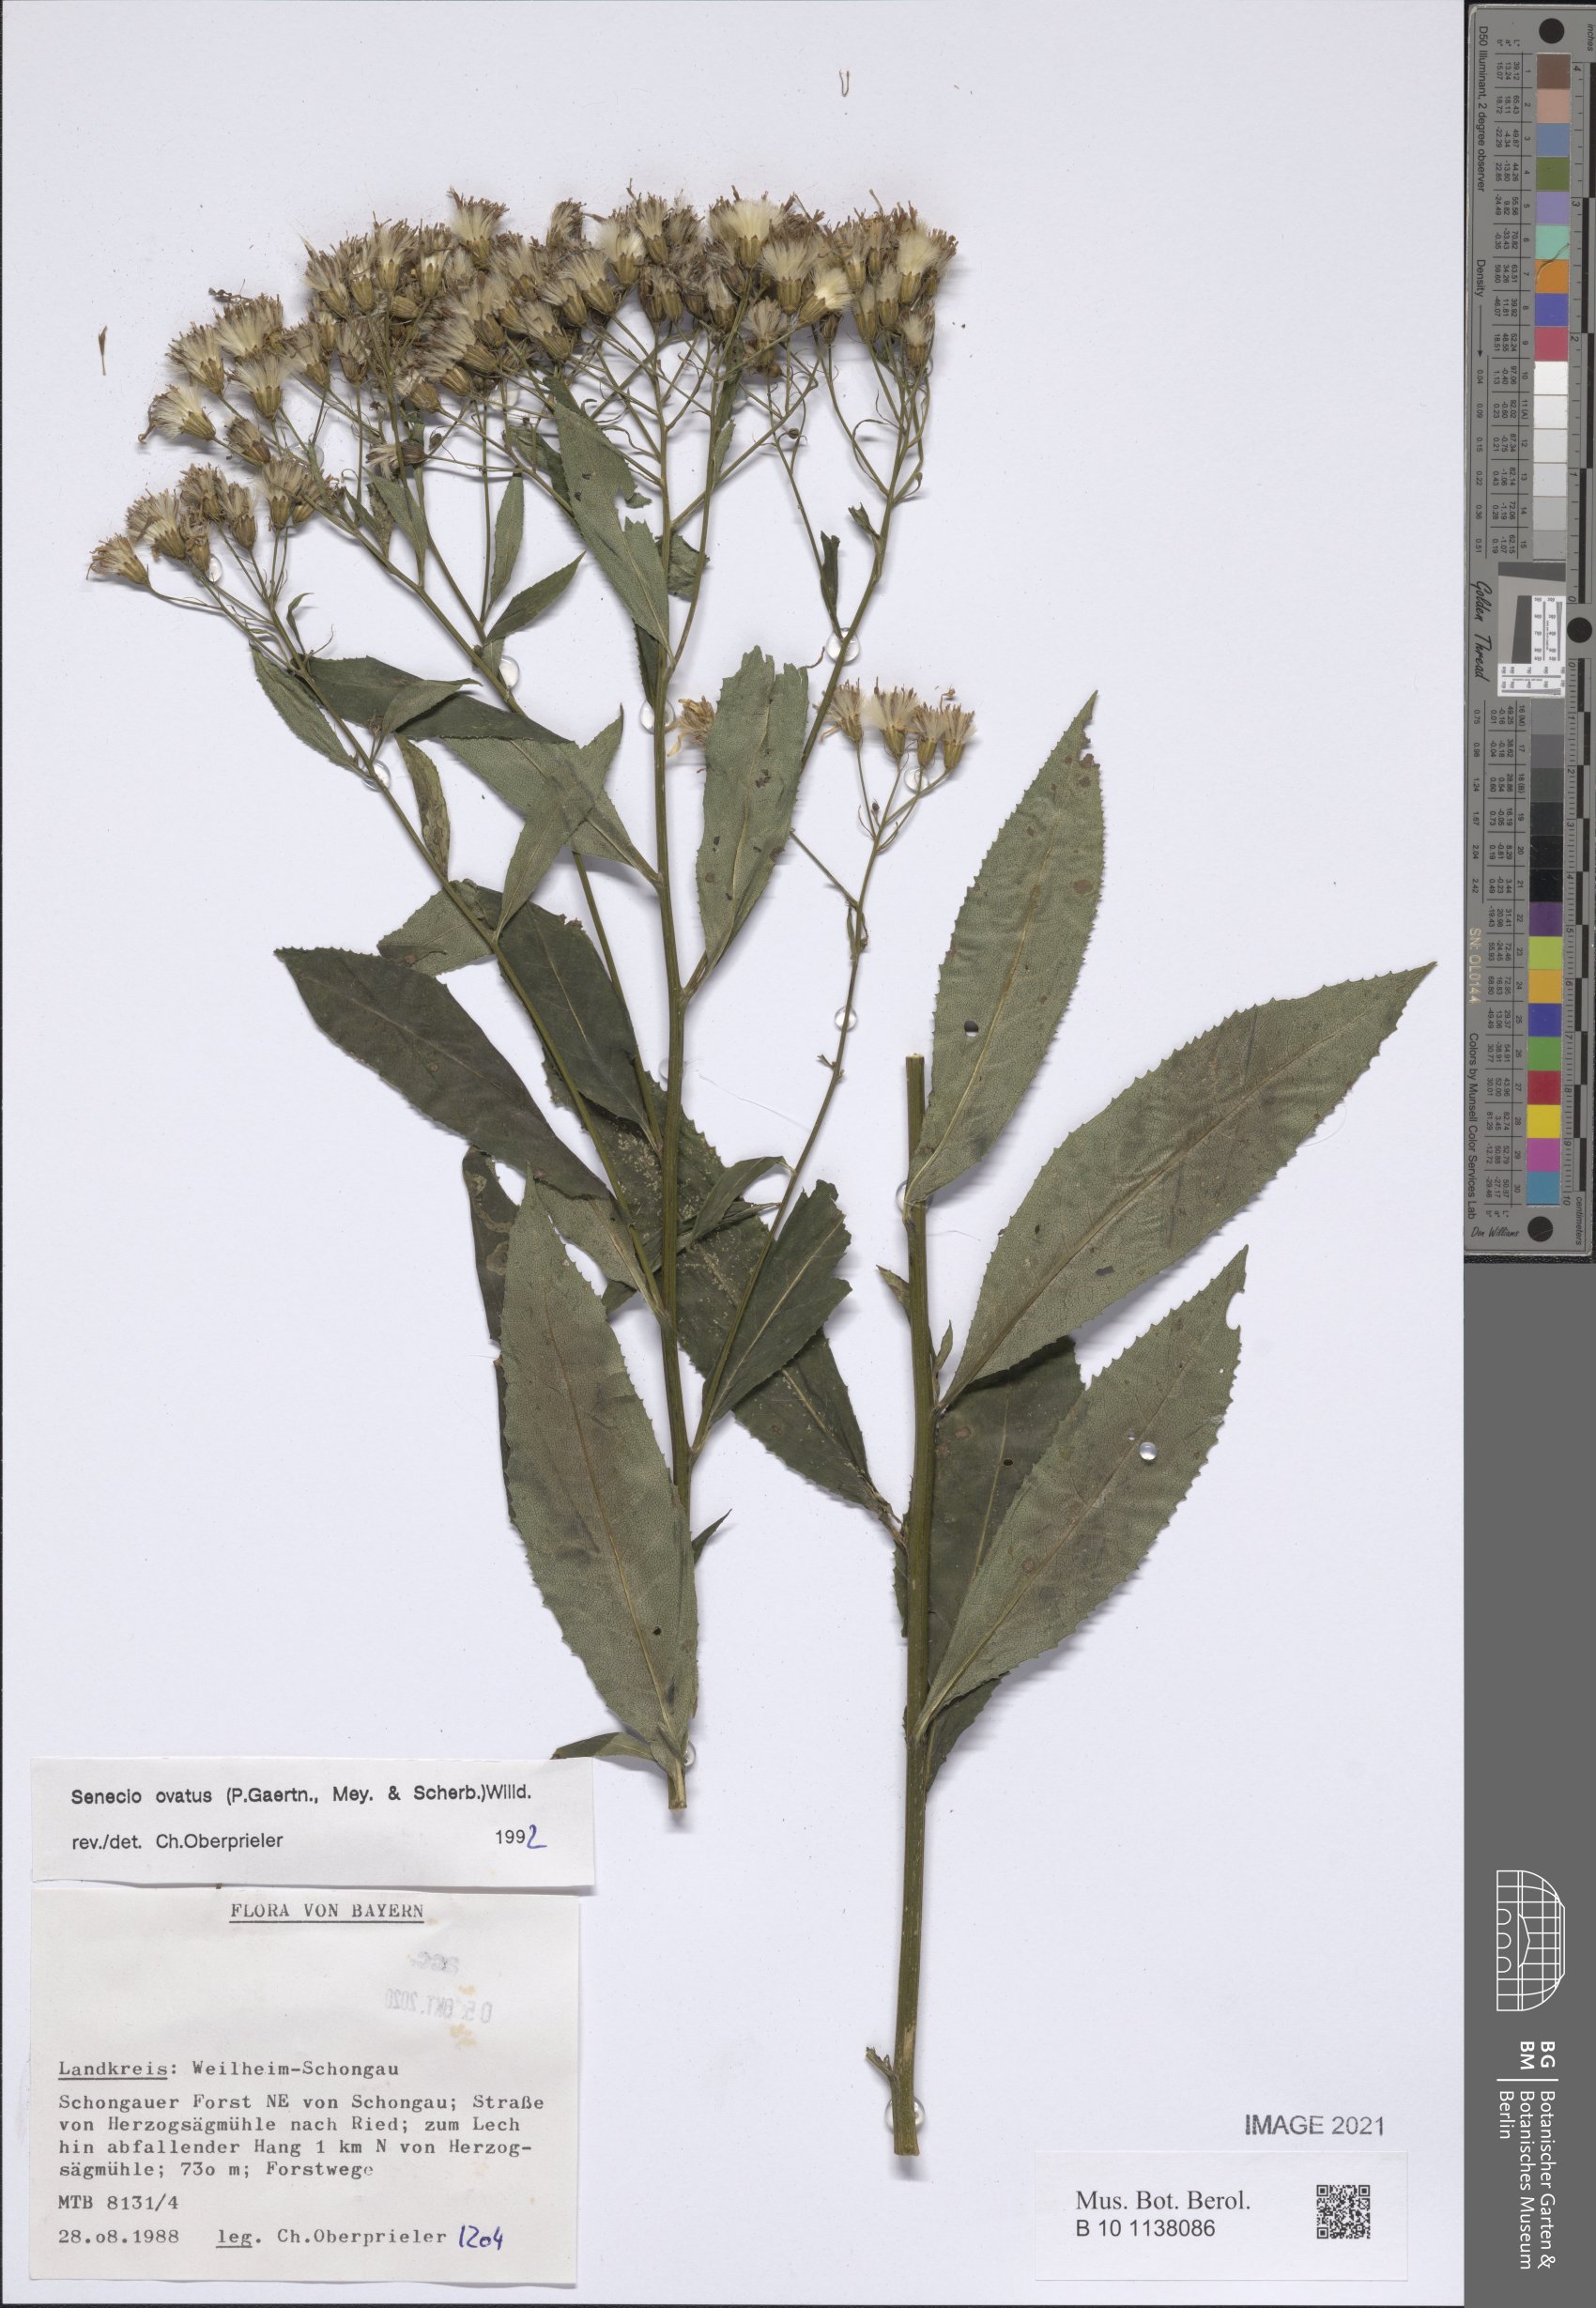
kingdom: Plantae
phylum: Tracheophyta
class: Magnoliopsida
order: Asterales
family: Asteraceae
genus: Senecio
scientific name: Senecio ovatus
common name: Wood ragwort
